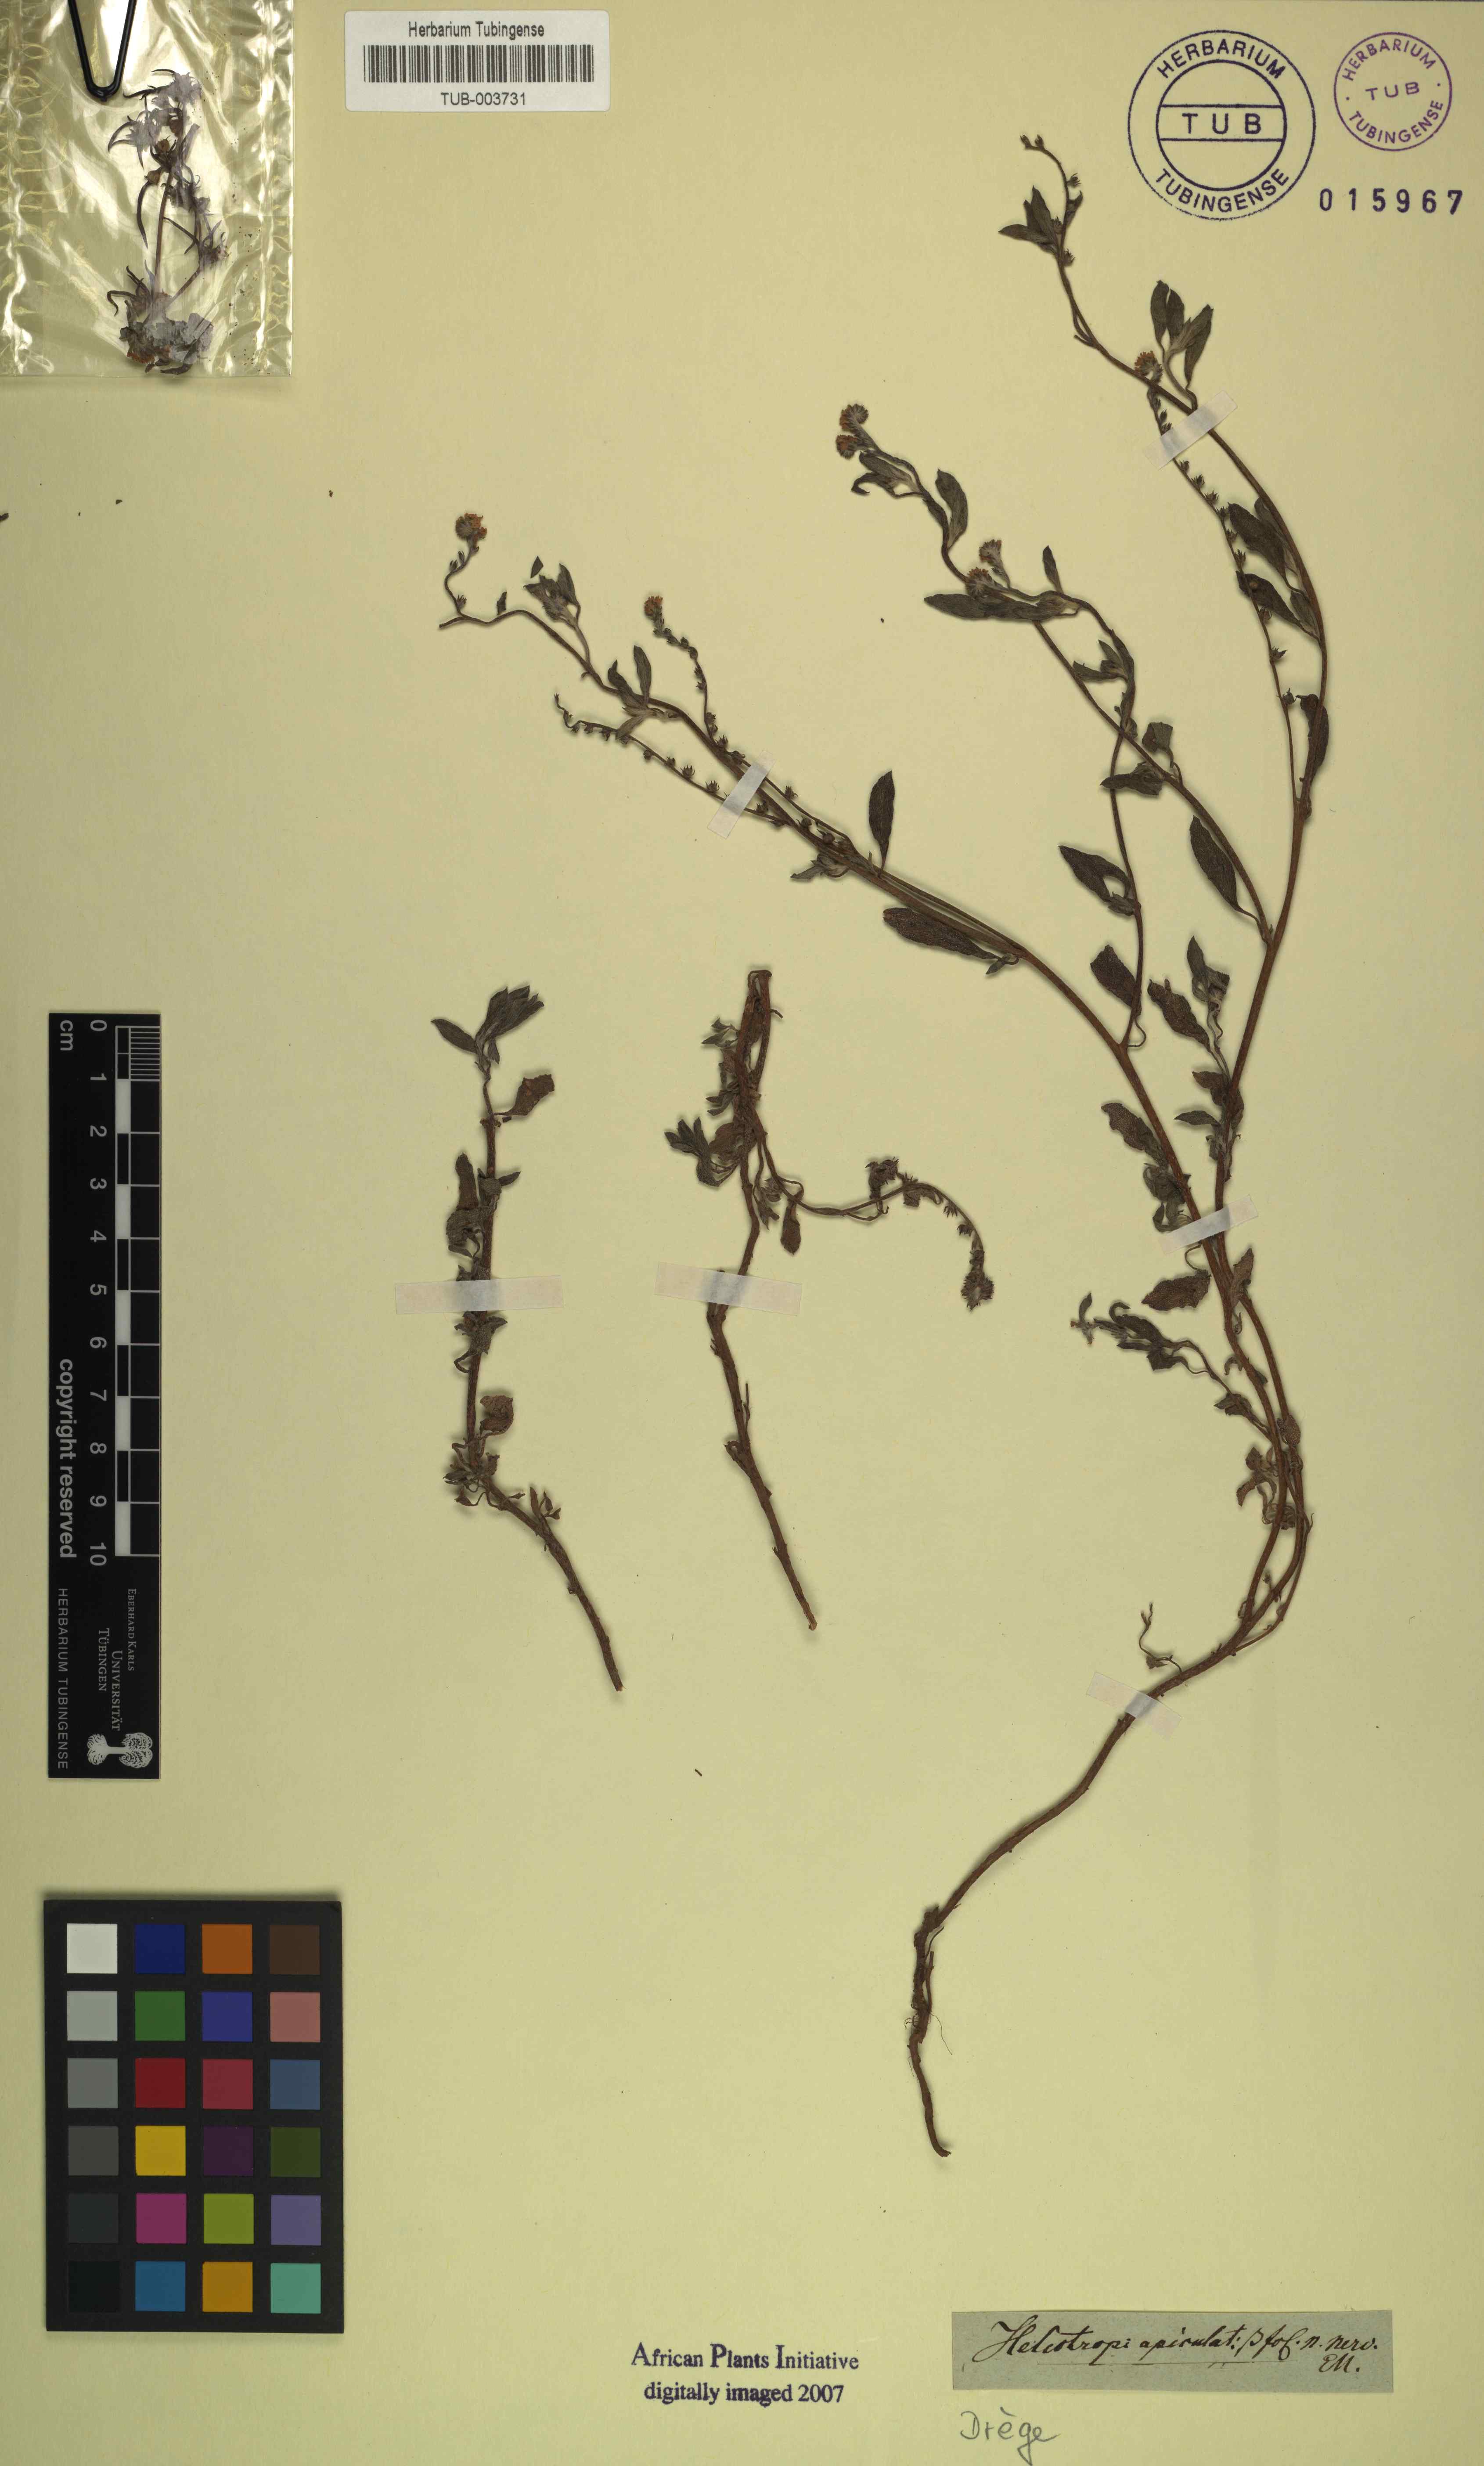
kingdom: Plantae
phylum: Tracheophyta
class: Magnoliopsida
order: Boraginales
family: Heliotropiaceae
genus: Euploca
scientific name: Euploca ovalifolia
